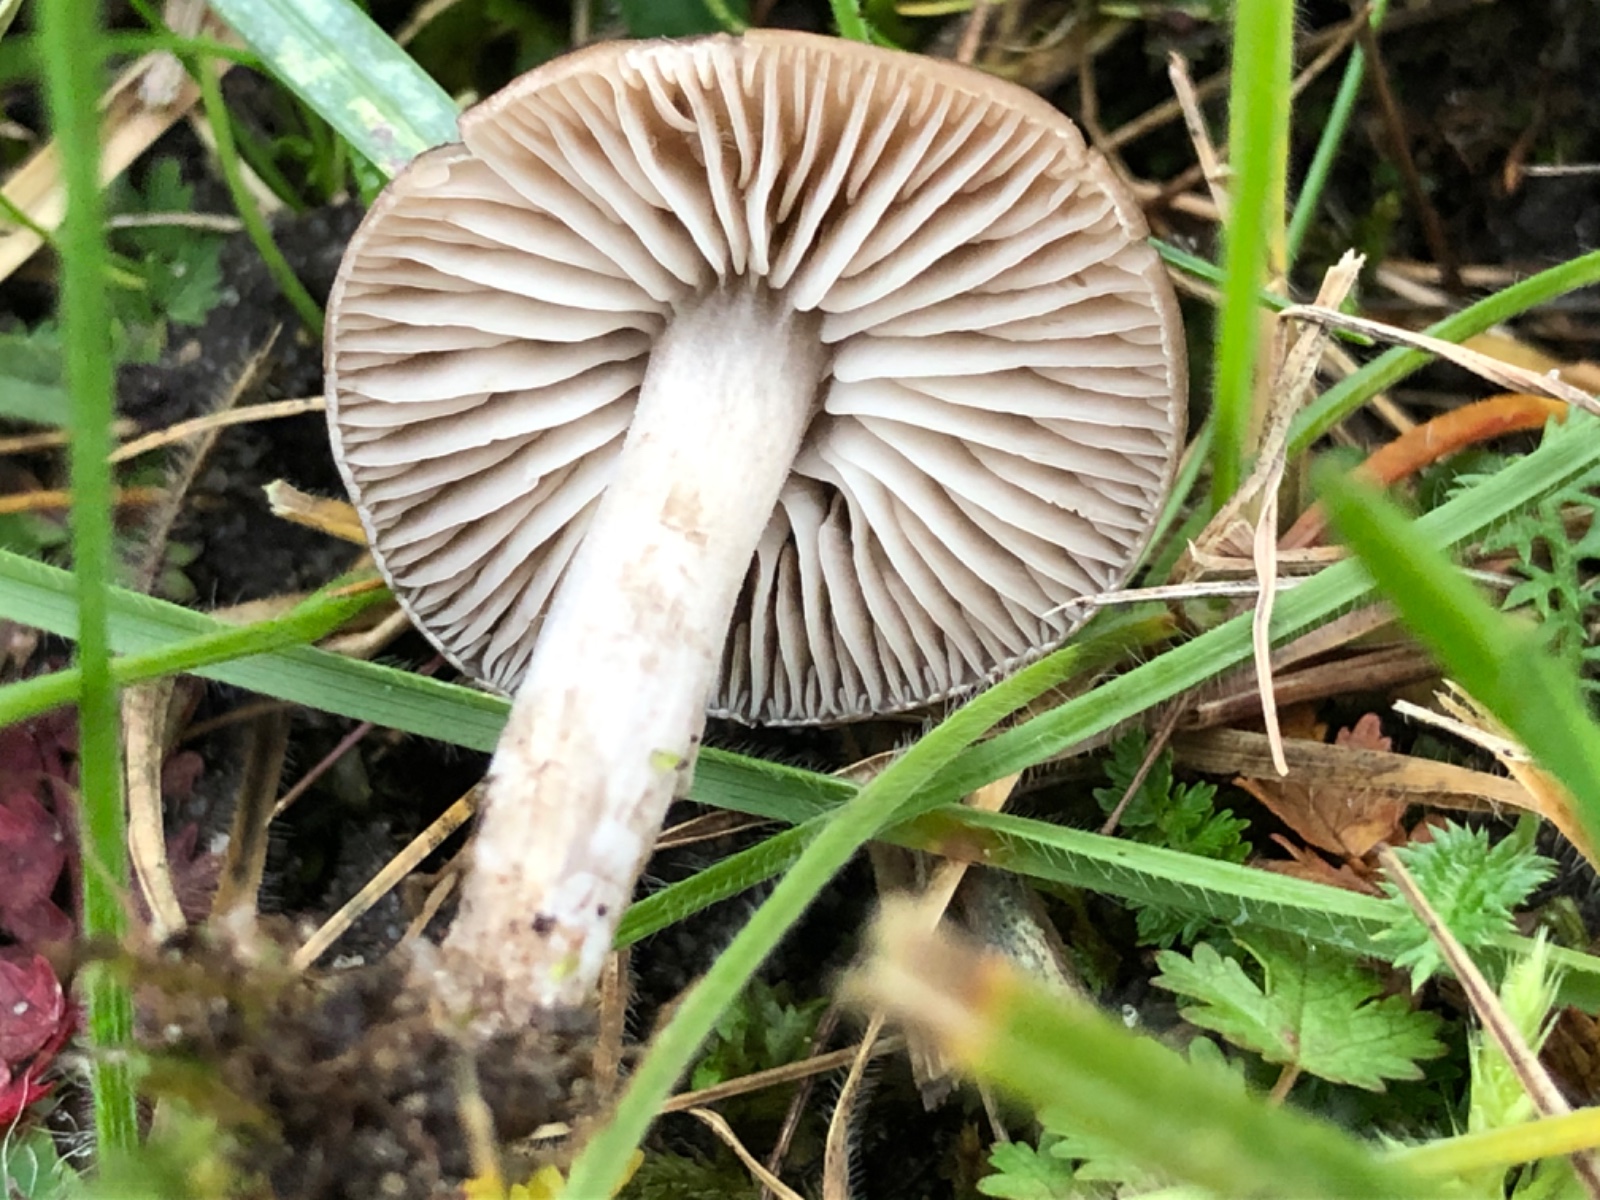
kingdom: Fungi
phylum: Basidiomycota
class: Agaricomycetes
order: Agaricales
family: Tricholomataceae
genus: Dermoloma
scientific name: Dermoloma
